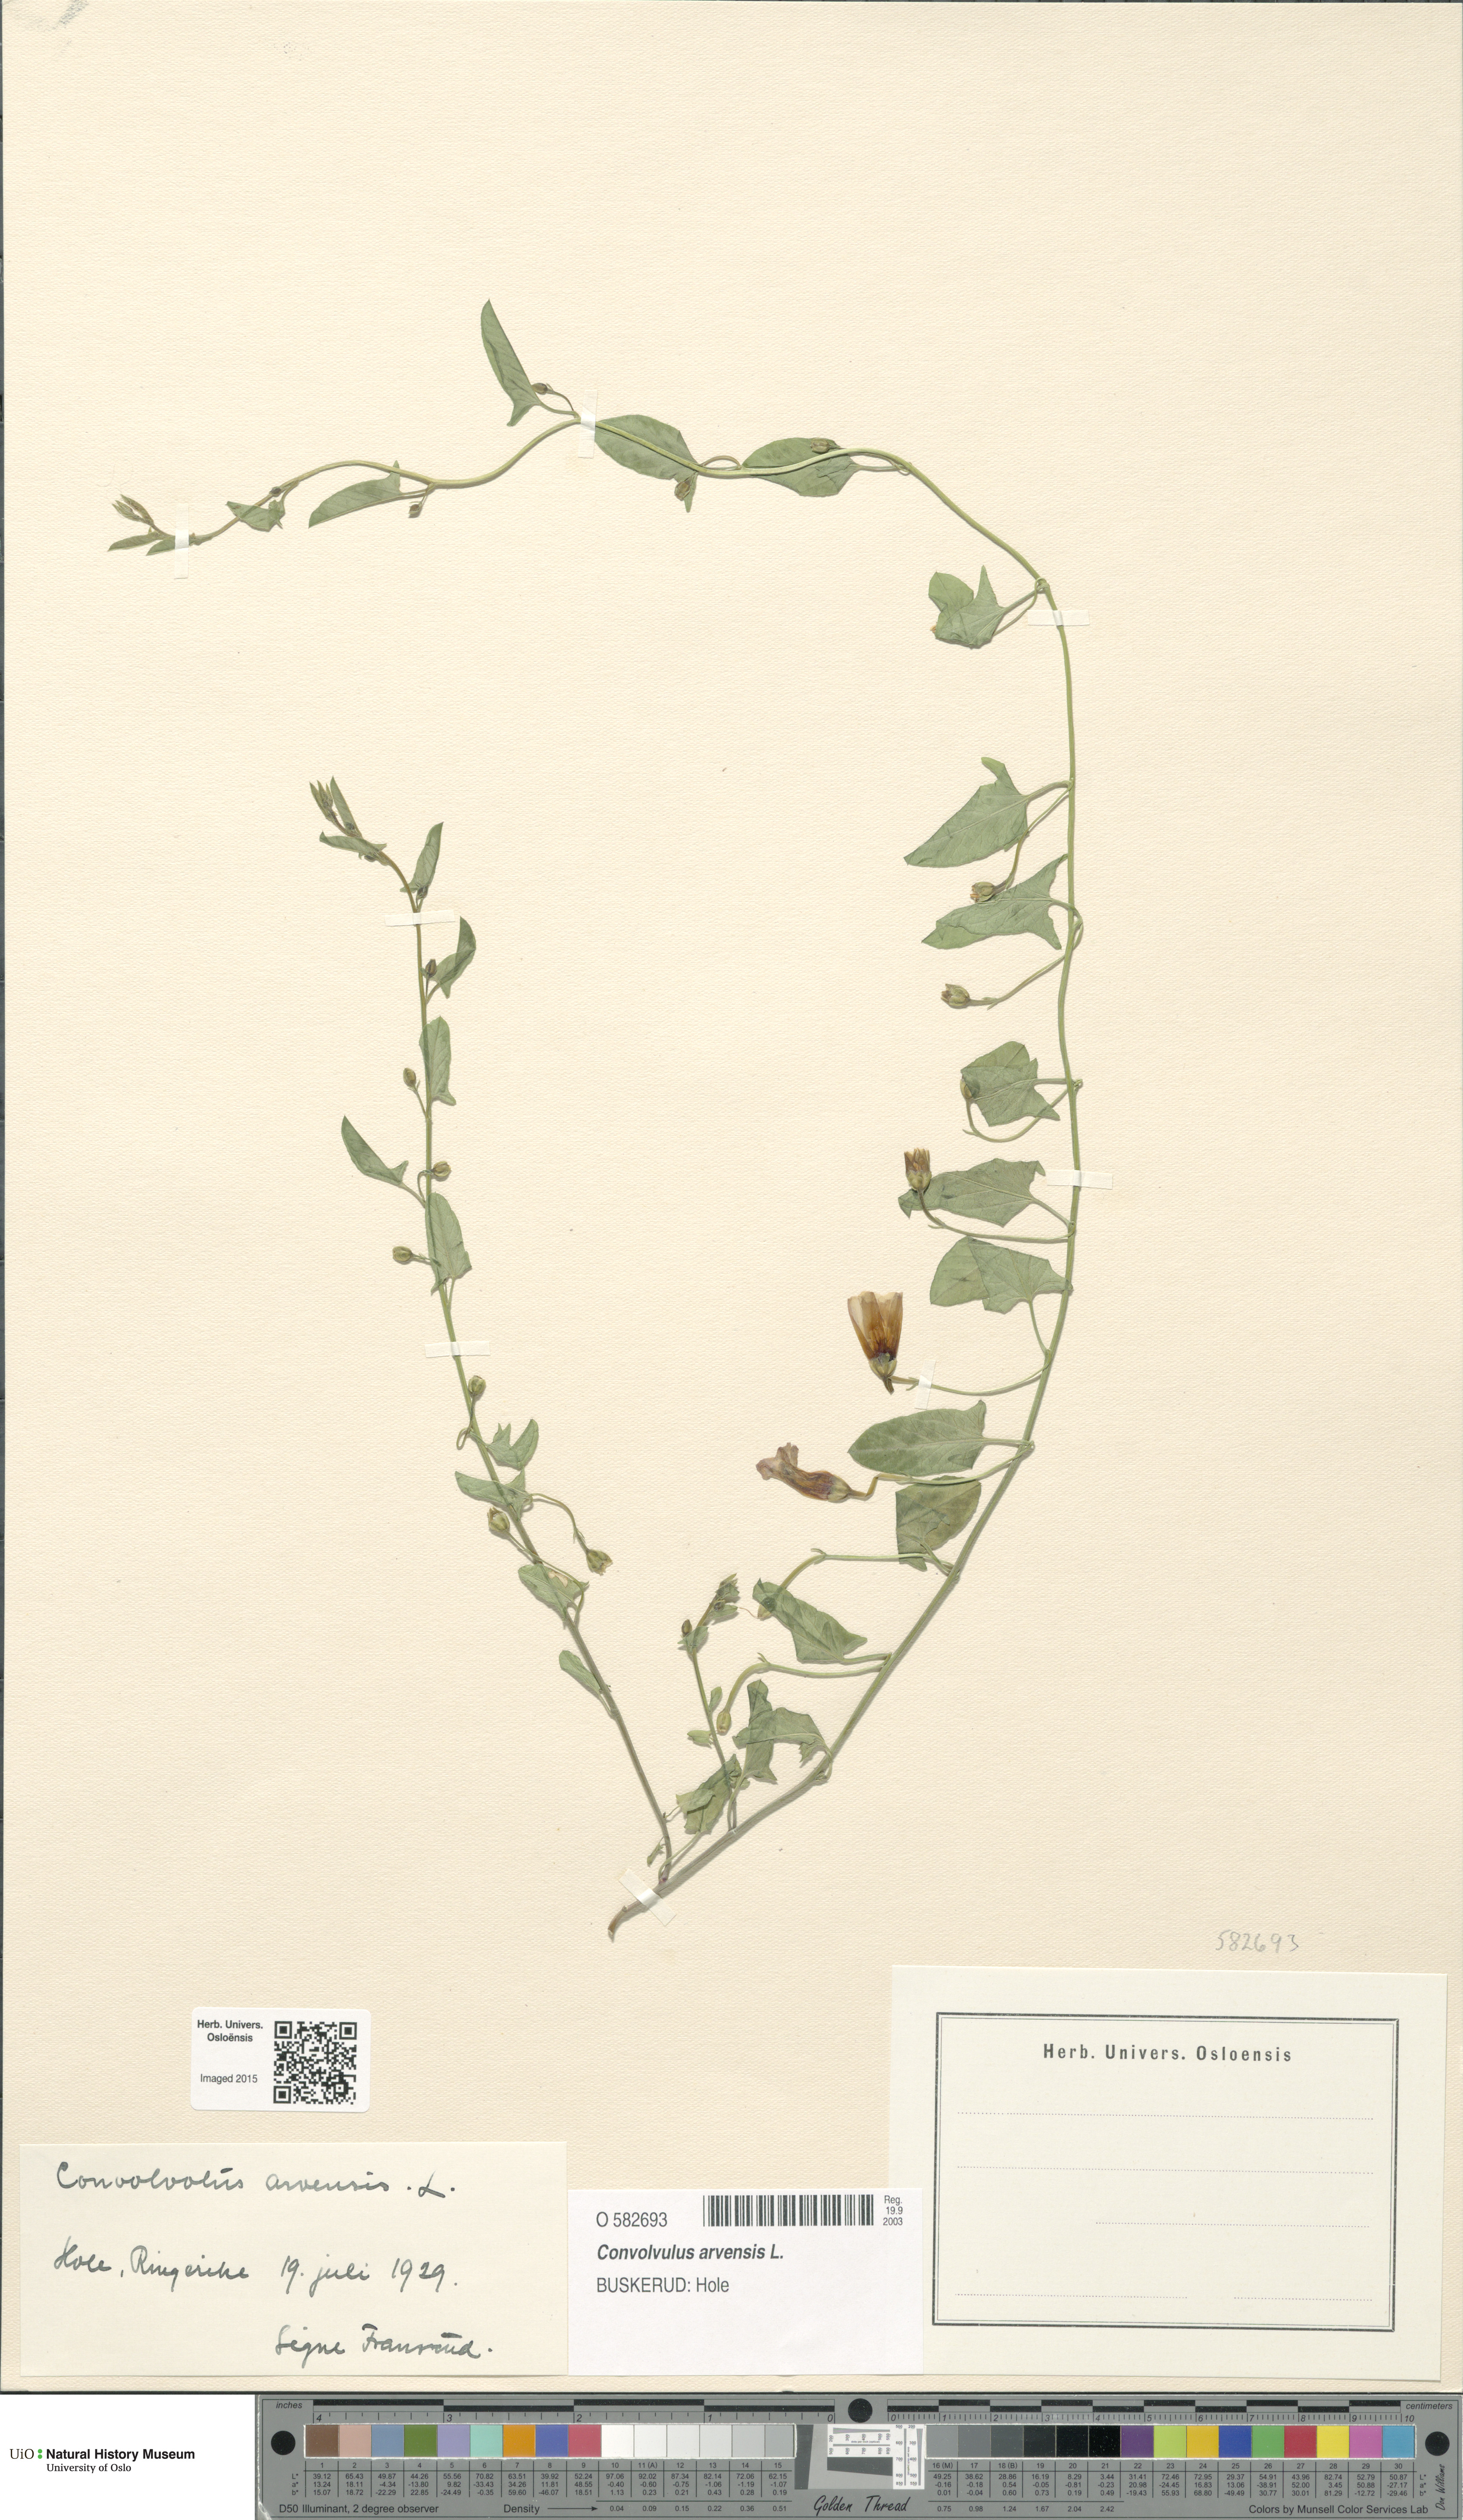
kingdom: Plantae
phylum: Tracheophyta
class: Magnoliopsida
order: Solanales
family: Convolvulaceae
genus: Convolvulus
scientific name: Convolvulus arvensis
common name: Field bindweed
